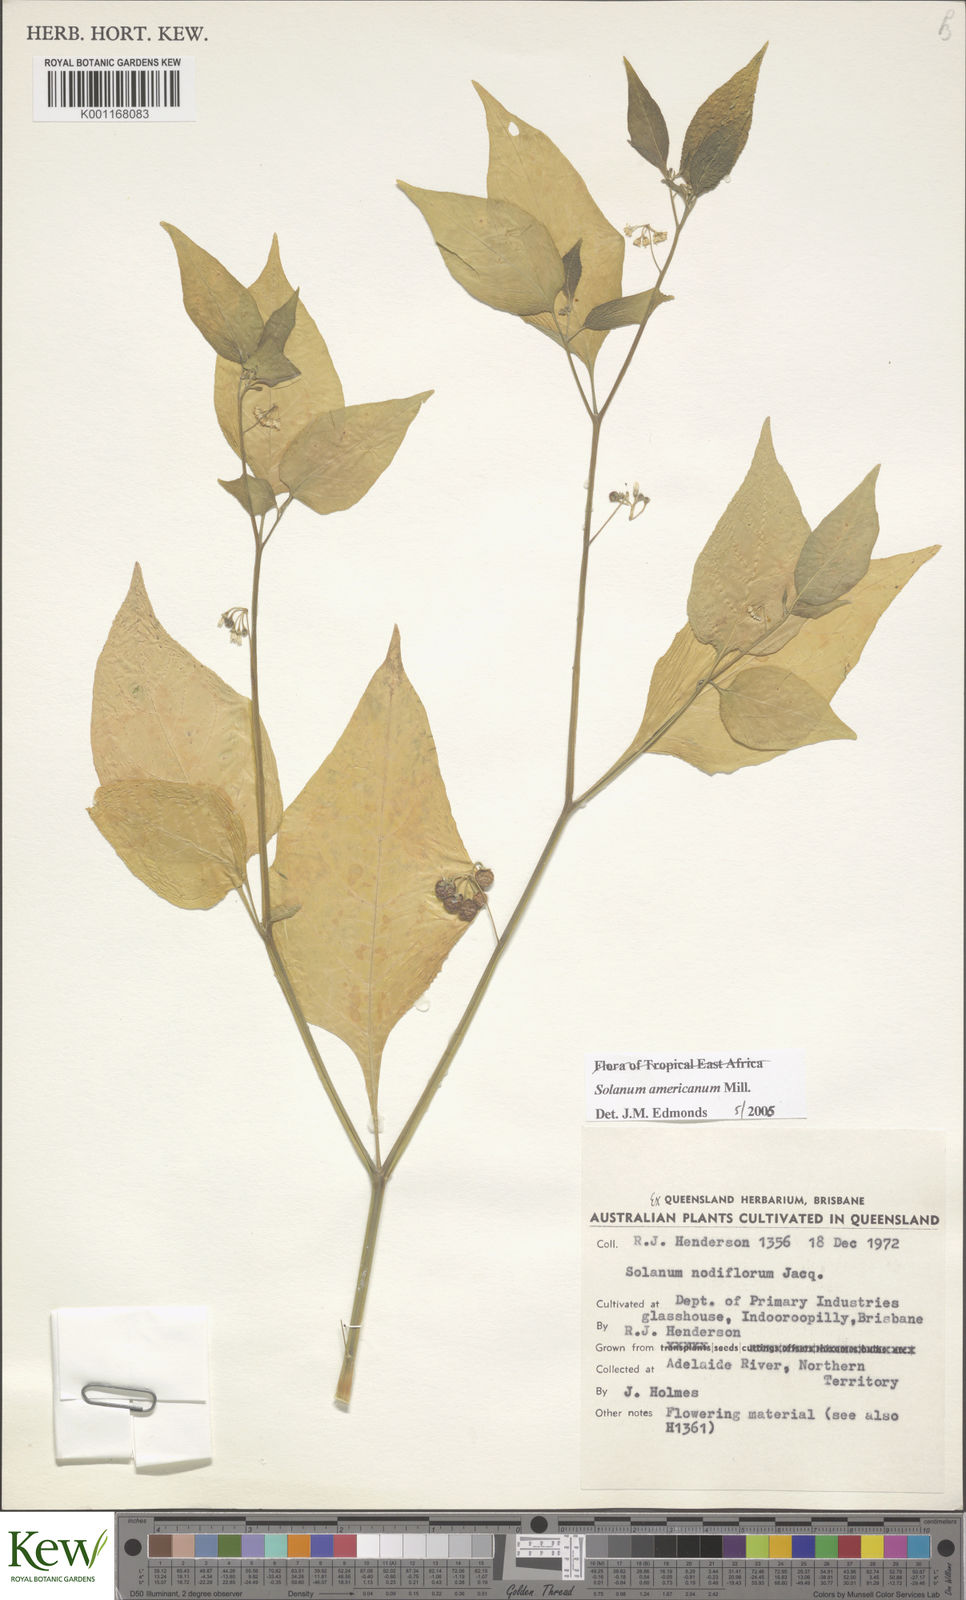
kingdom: Plantae
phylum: Tracheophyta
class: Magnoliopsida
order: Solanales
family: Solanaceae
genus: Solanum
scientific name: Solanum americanum
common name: American black nightshade
